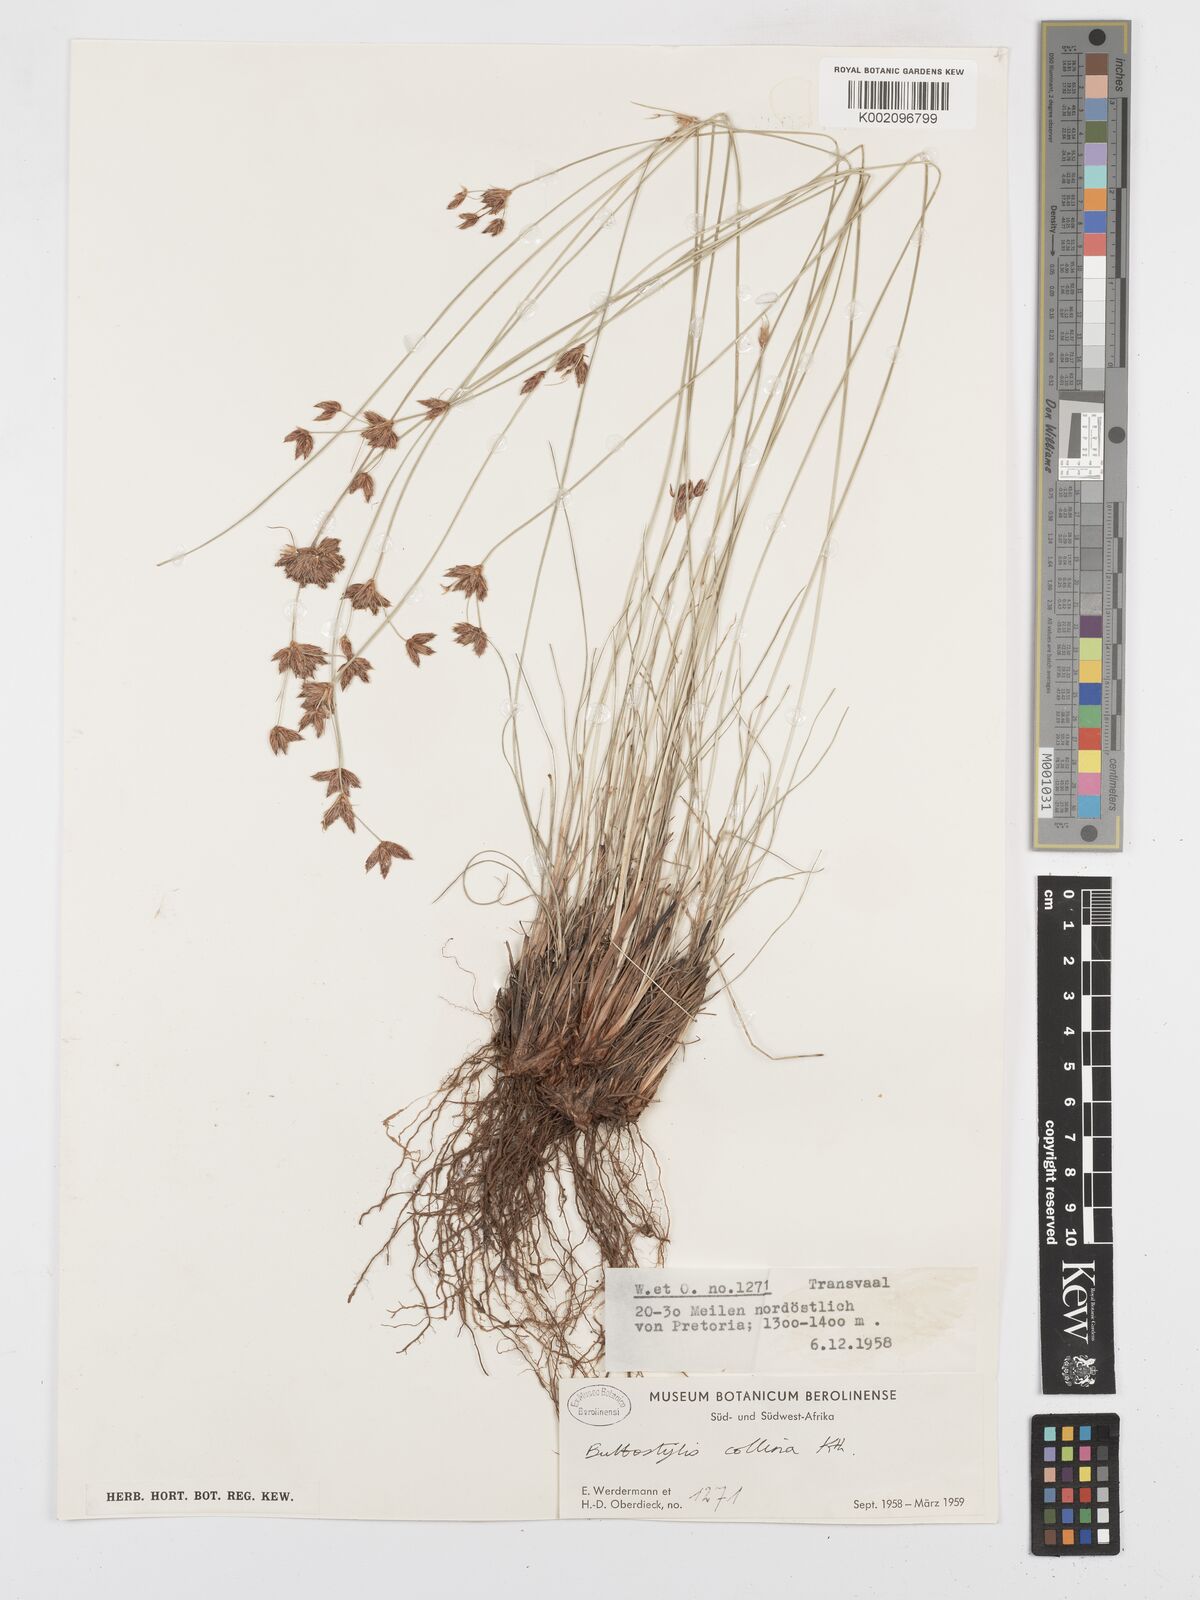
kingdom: Plantae
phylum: Tracheophyta
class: Liliopsida
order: Poales
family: Cyperaceae
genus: Bulbostylis
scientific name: Bulbostylis
